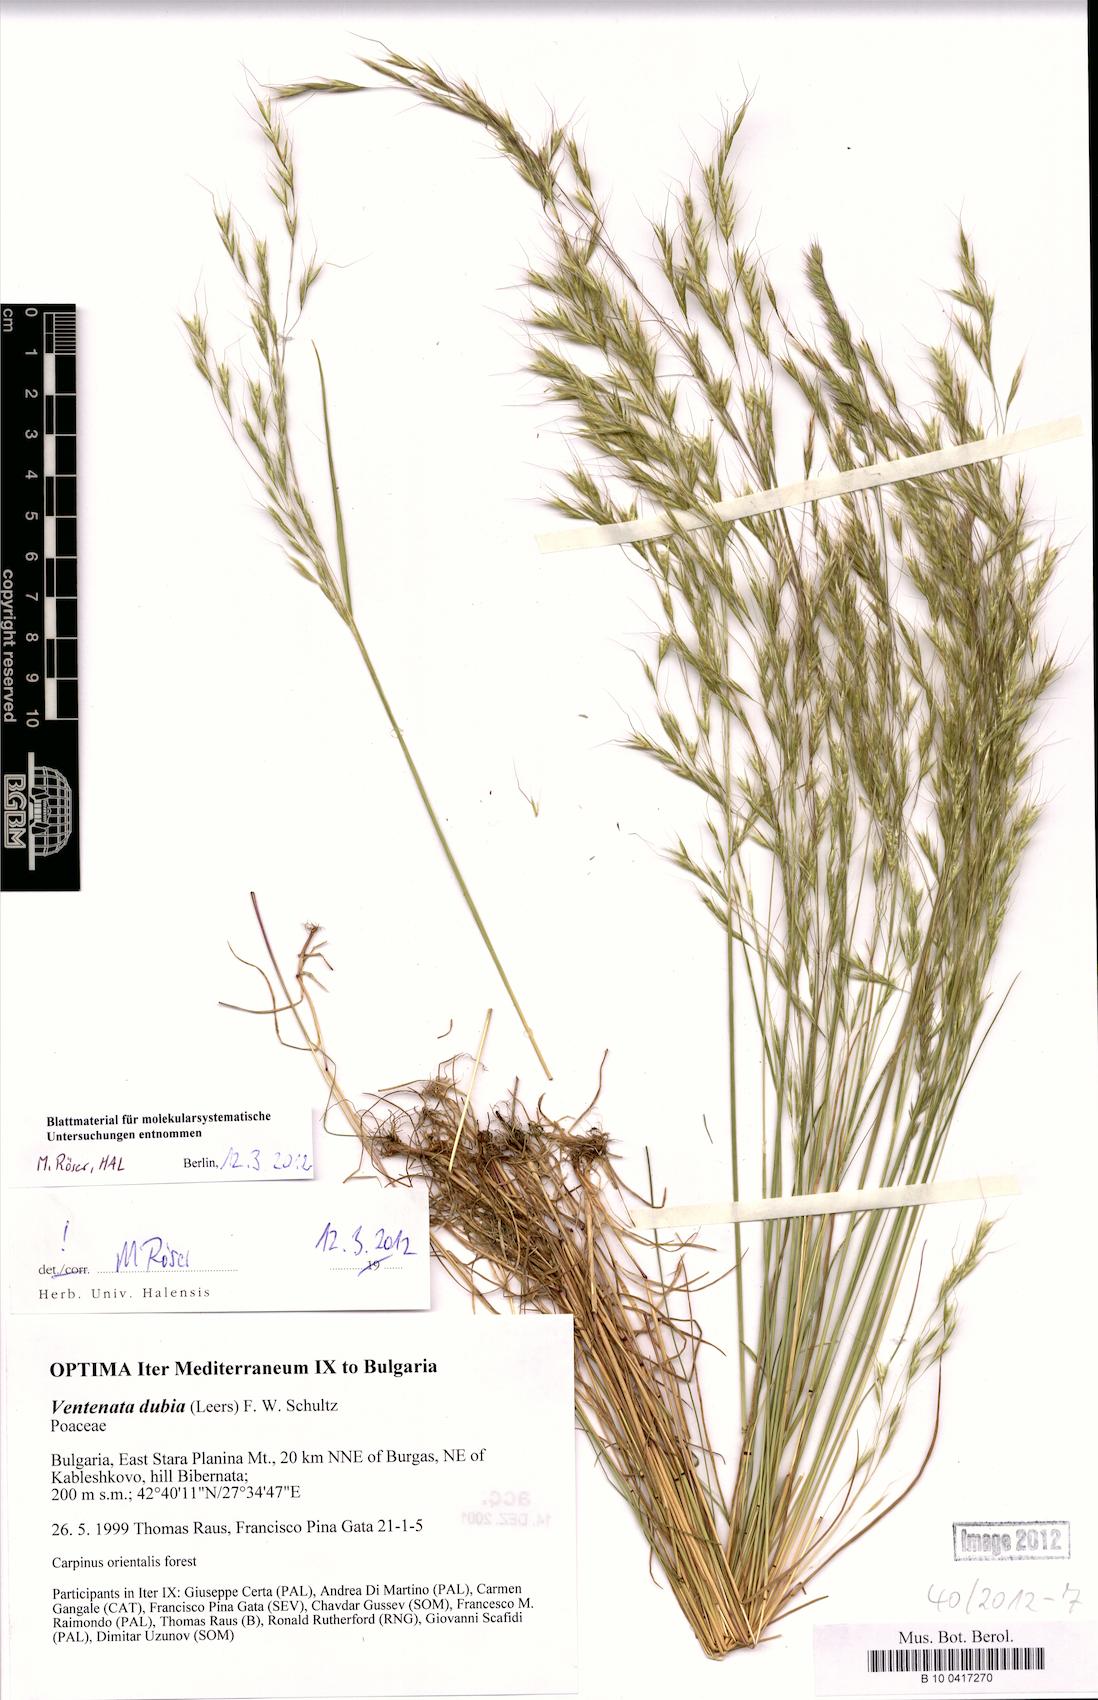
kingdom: Plantae
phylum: Tracheophyta
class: Liliopsida
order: Poales
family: Poaceae
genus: Ventenata
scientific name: Ventenata dubia
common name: North africa grass
